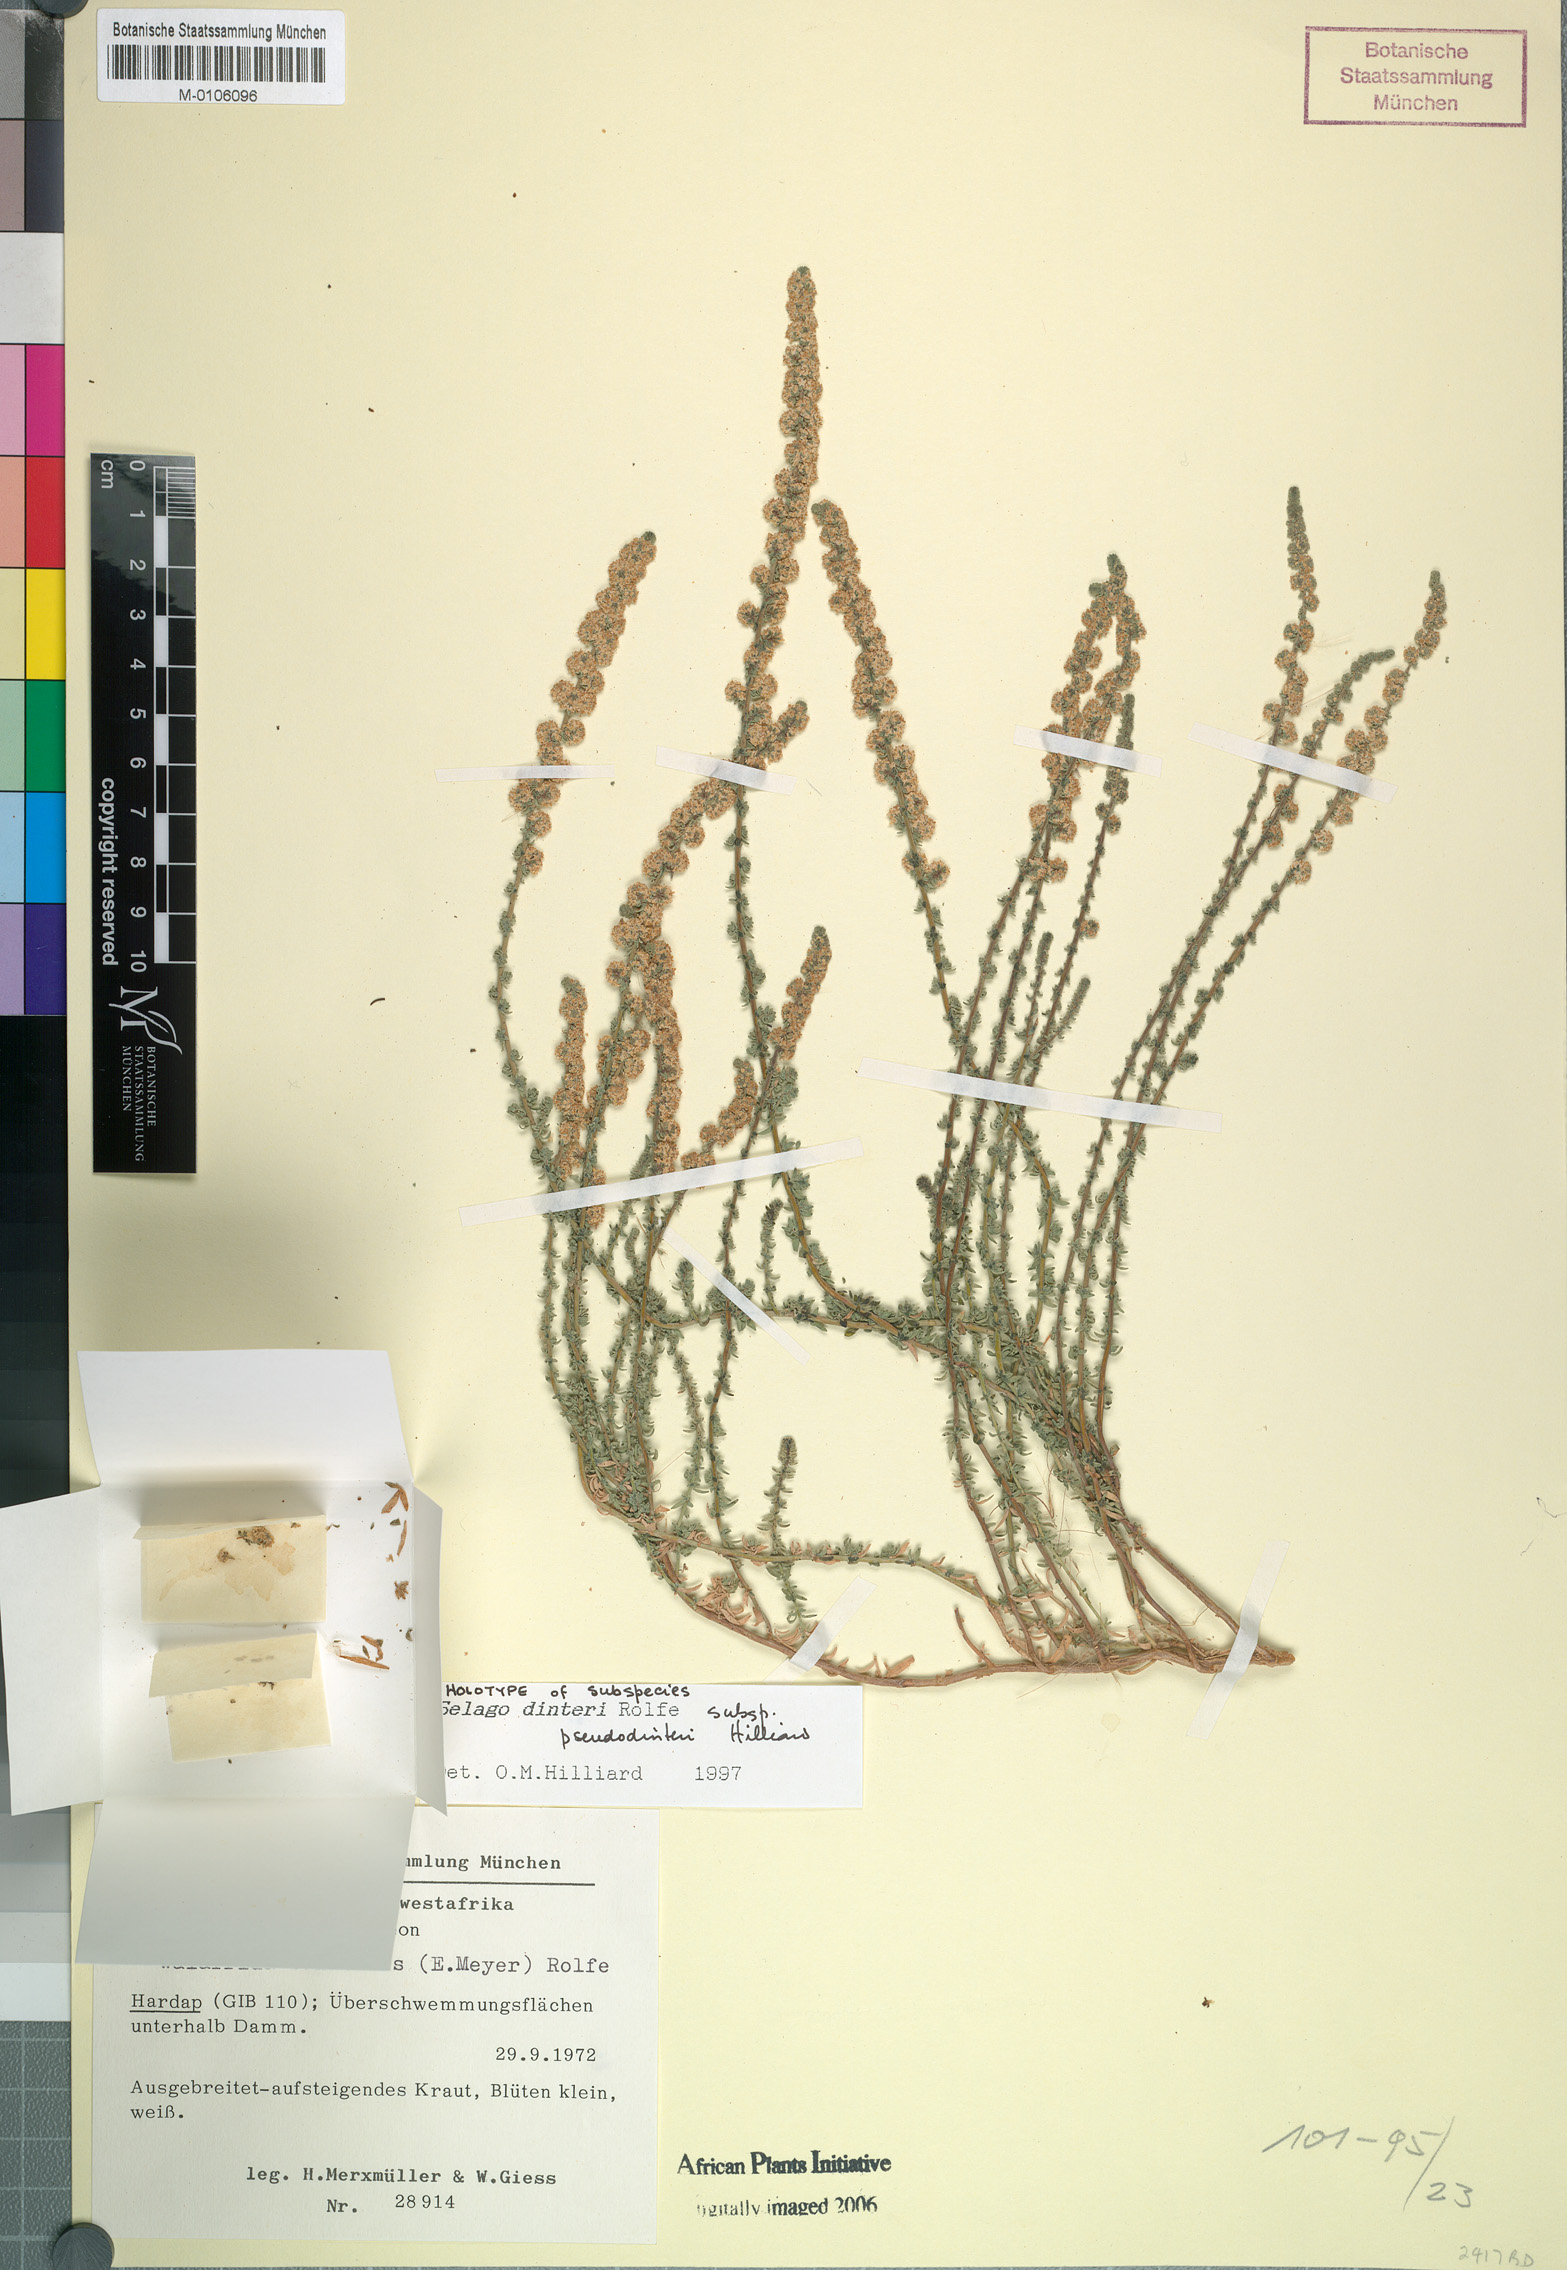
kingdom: Plantae
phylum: Tracheophyta
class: Magnoliopsida
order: Lamiales
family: Scrophulariaceae
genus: Selago
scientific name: Selago dinteri
